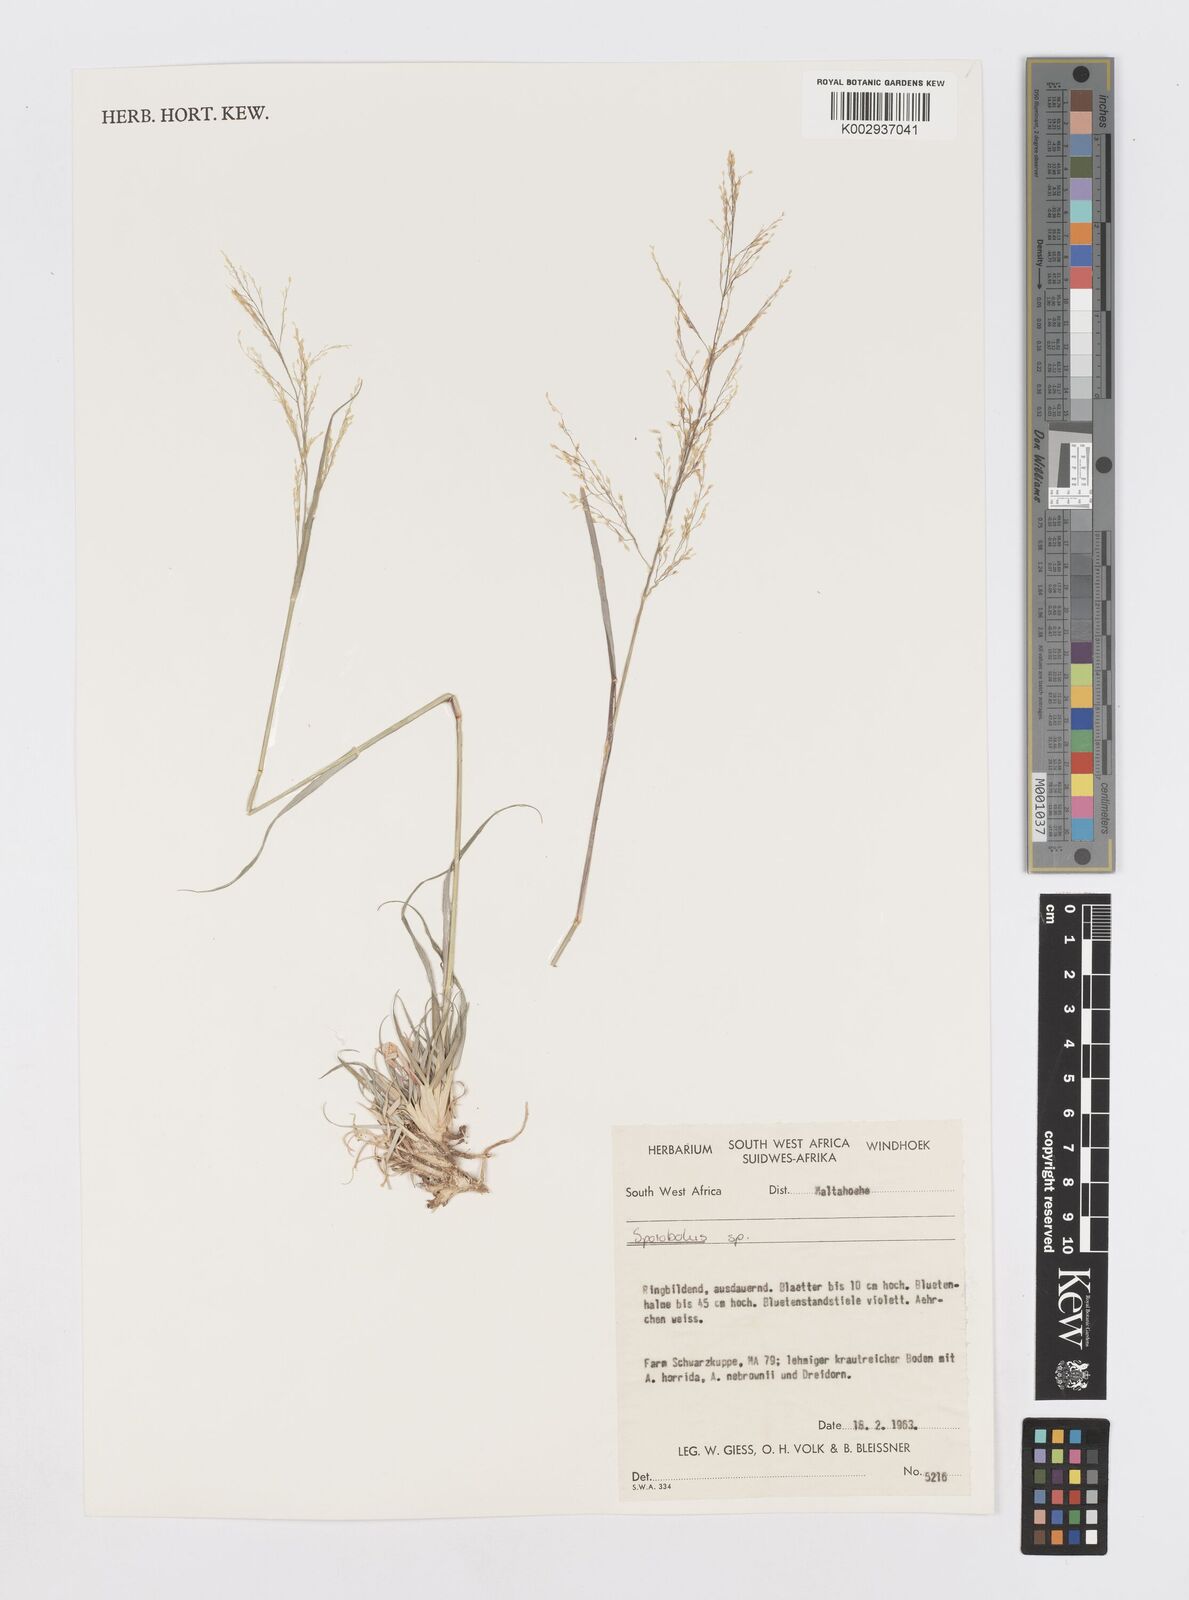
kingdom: Plantae
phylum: Tracheophyta
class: Liliopsida
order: Poales
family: Poaceae
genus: Sporobolus
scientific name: Sporobolus
